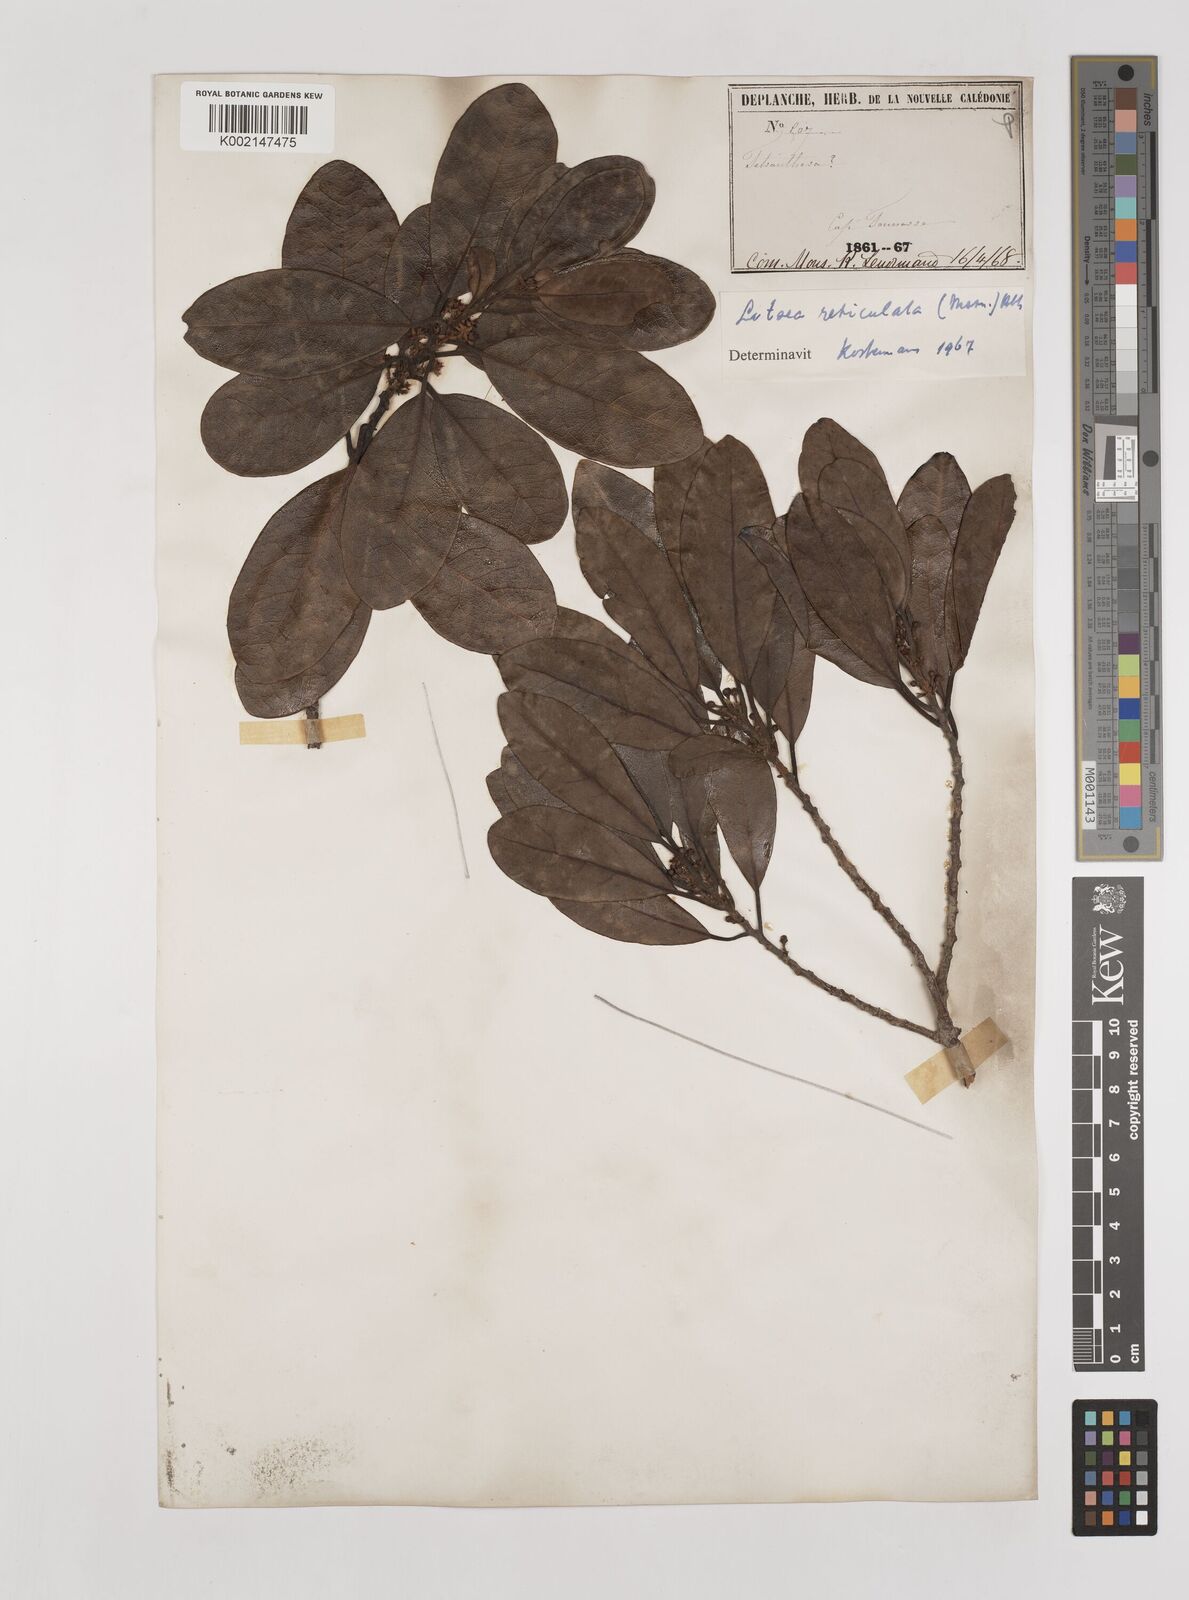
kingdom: Plantae
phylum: Tracheophyta
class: Magnoliopsida
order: Laurales
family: Lauraceae
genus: Litsea
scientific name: Litsea reticulata
